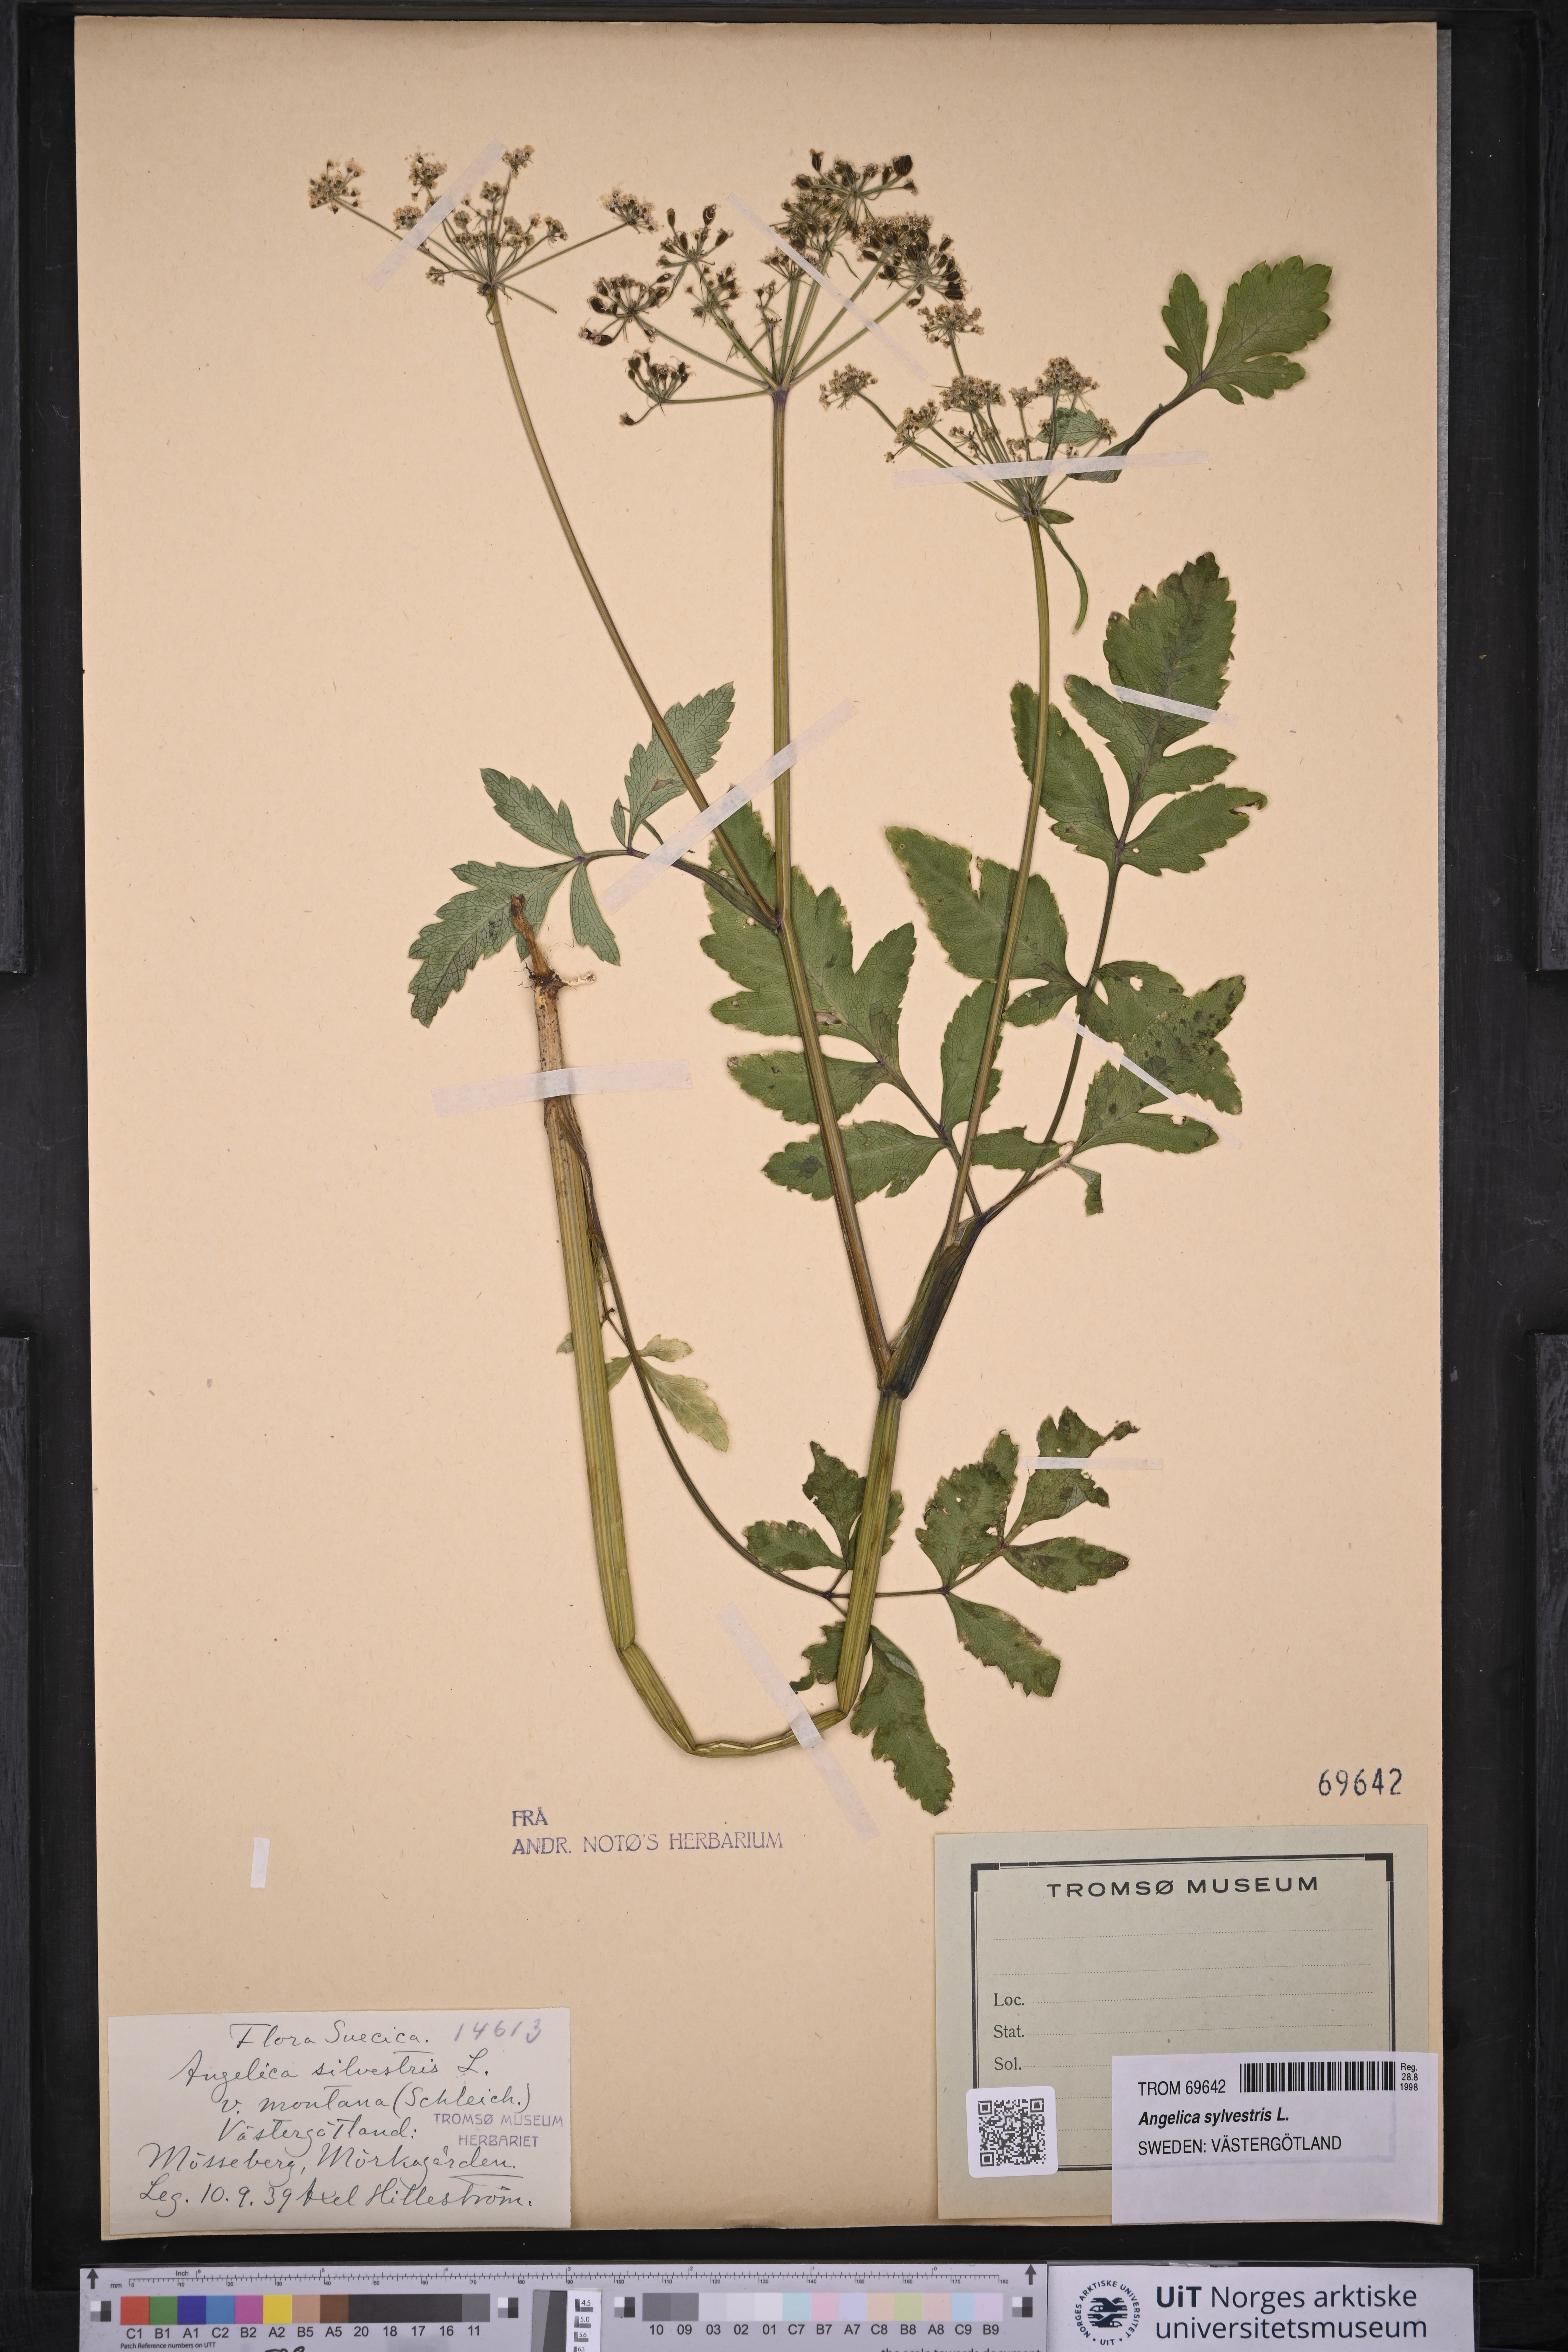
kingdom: Plantae
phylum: Tracheophyta
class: Magnoliopsida
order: Apiales
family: Apiaceae
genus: Angelica
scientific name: Angelica sylvestris
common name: Wild angelica
